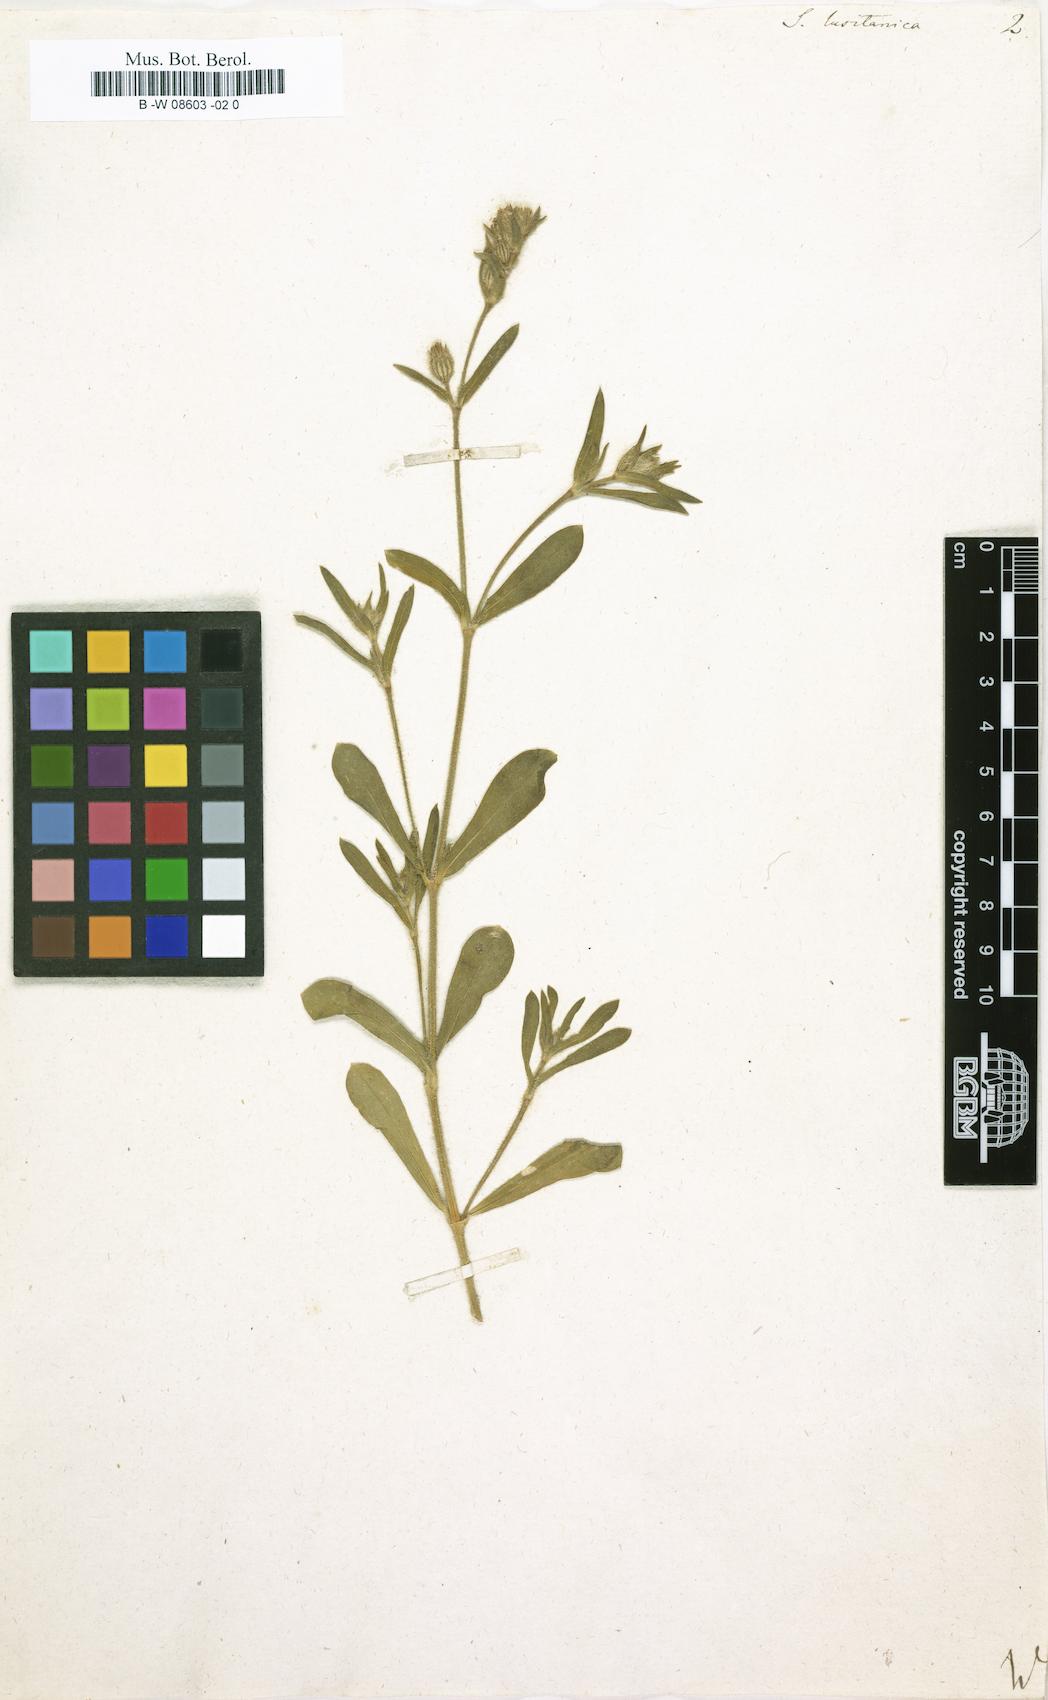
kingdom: Plantae
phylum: Tracheophyta
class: Magnoliopsida
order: Caryophyllales
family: Caryophyllaceae
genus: Silene
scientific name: Silene gallica
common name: Small-flowered catchfly
